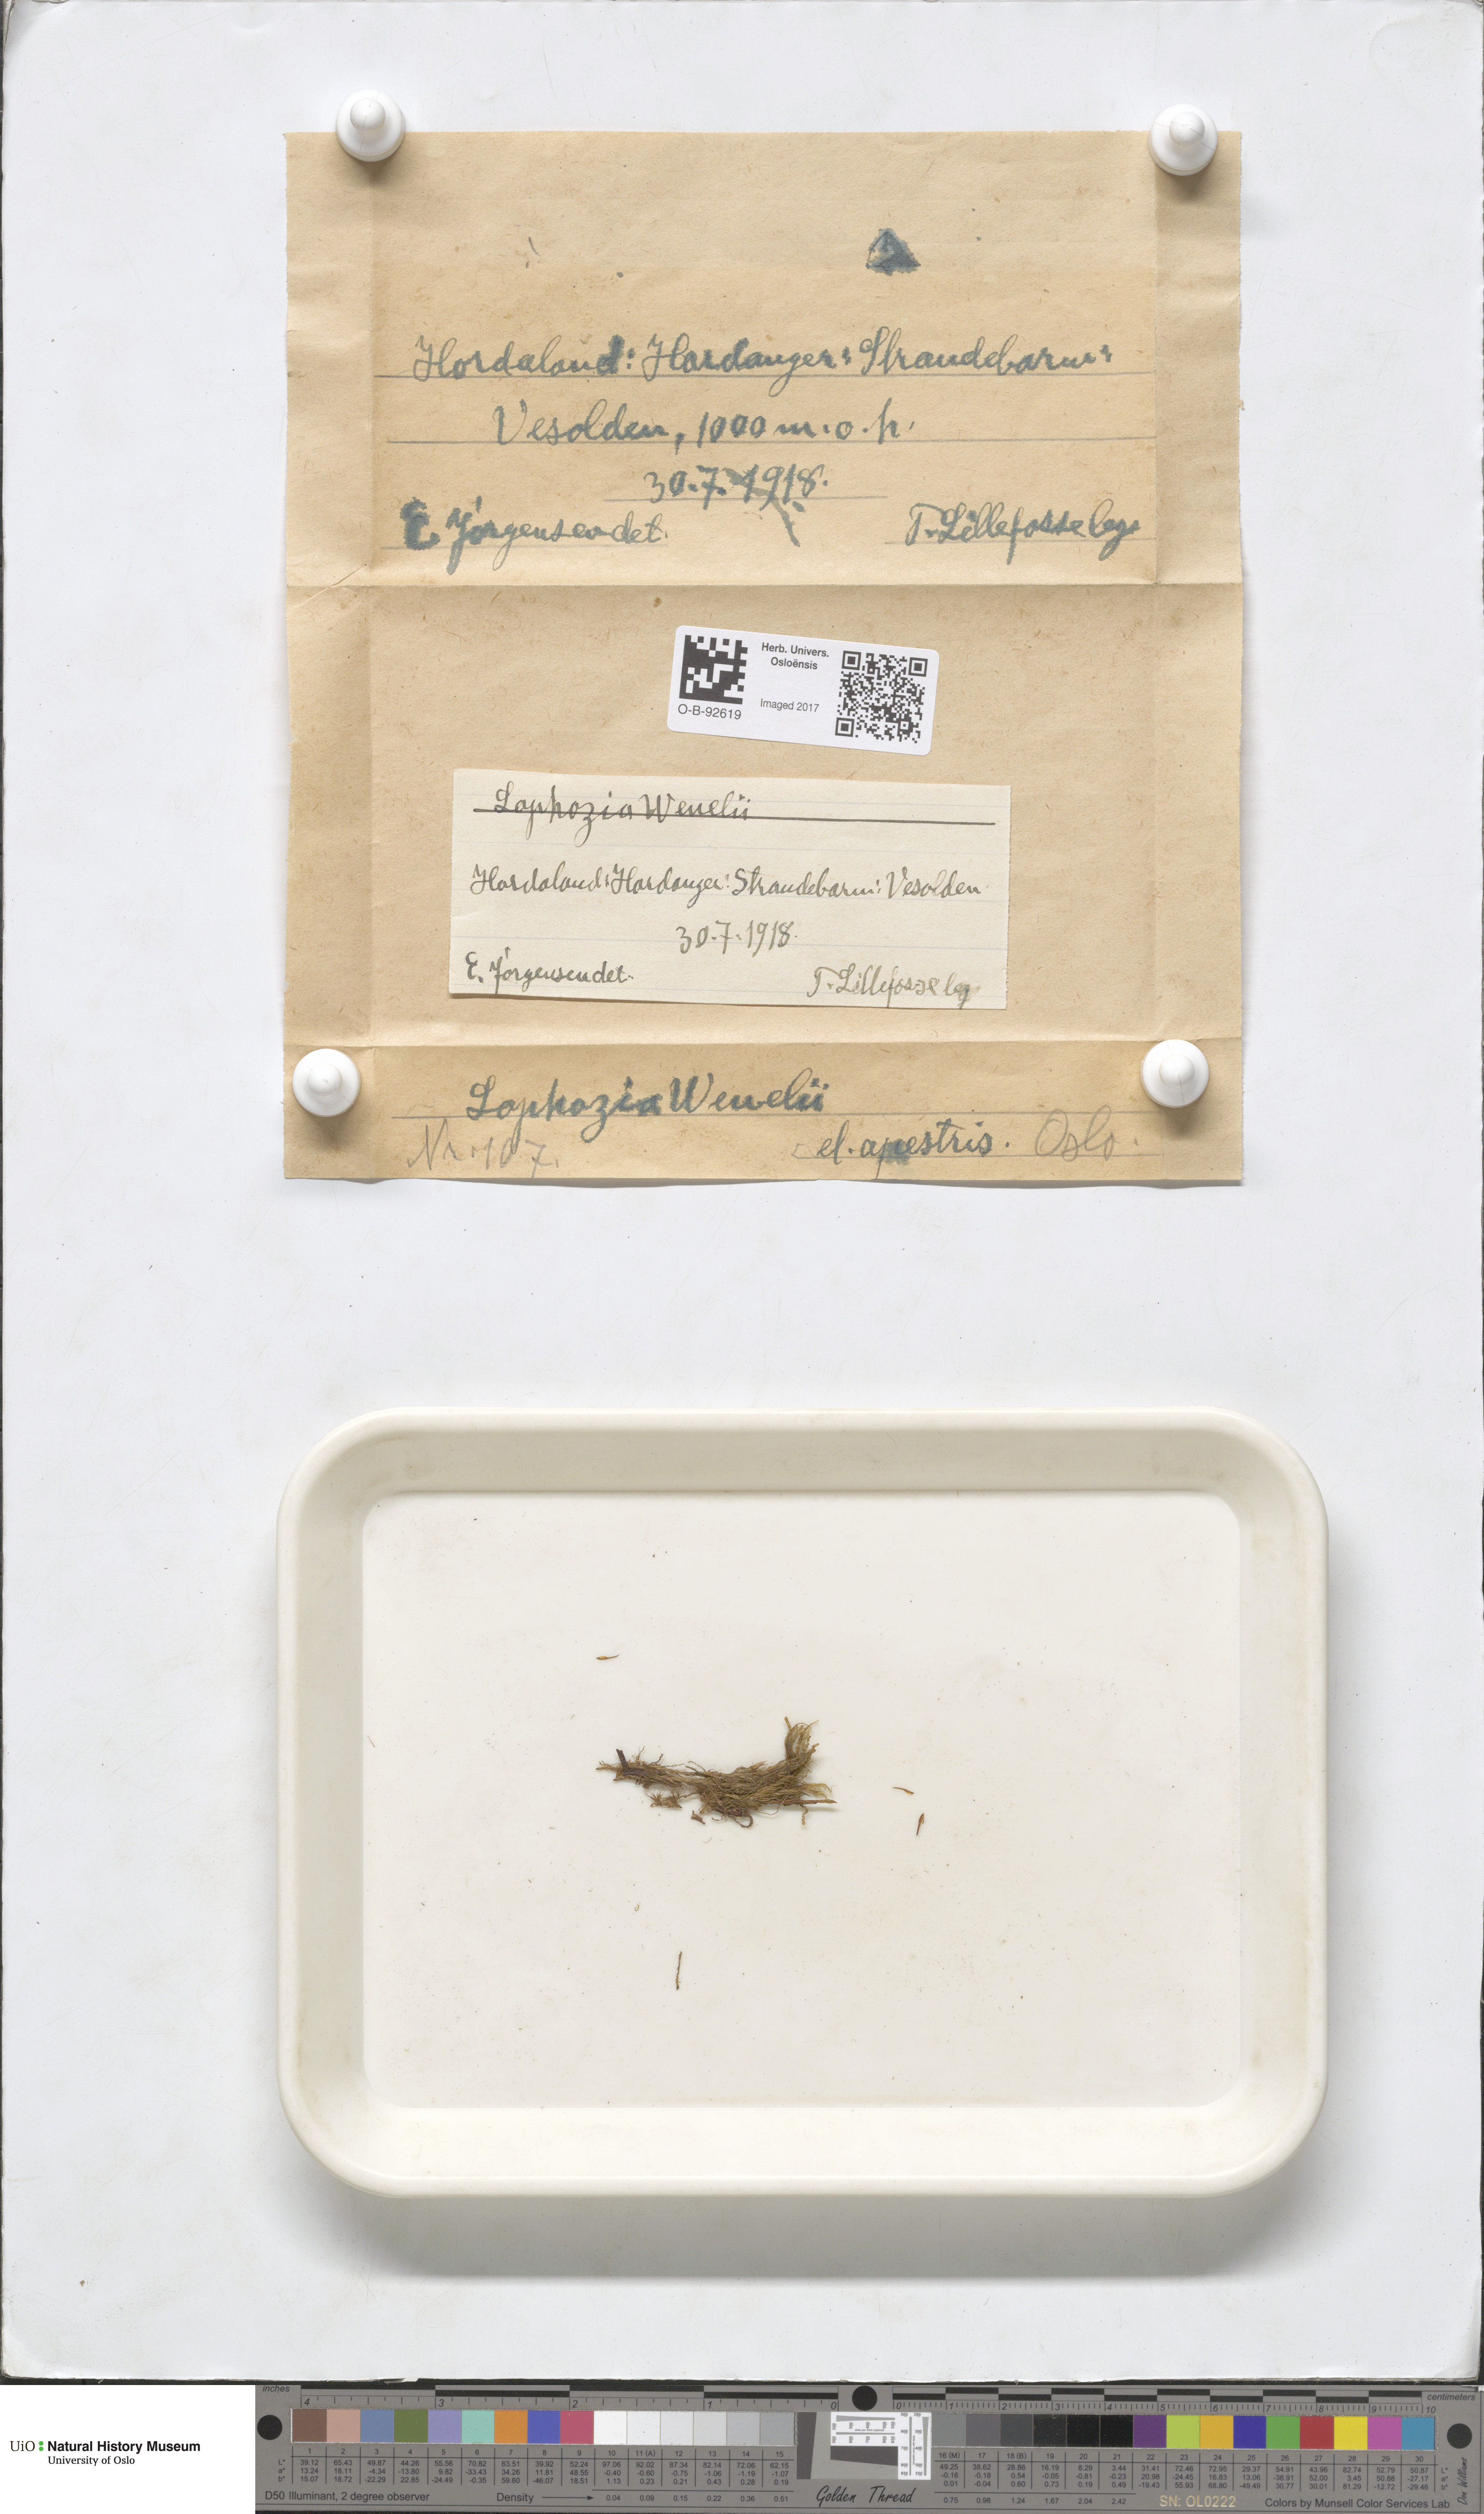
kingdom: Plantae
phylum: Marchantiophyta
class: Jungermanniopsida
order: Jungermanniales
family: Lophoziaceae
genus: Lophozia
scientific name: Lophozia
